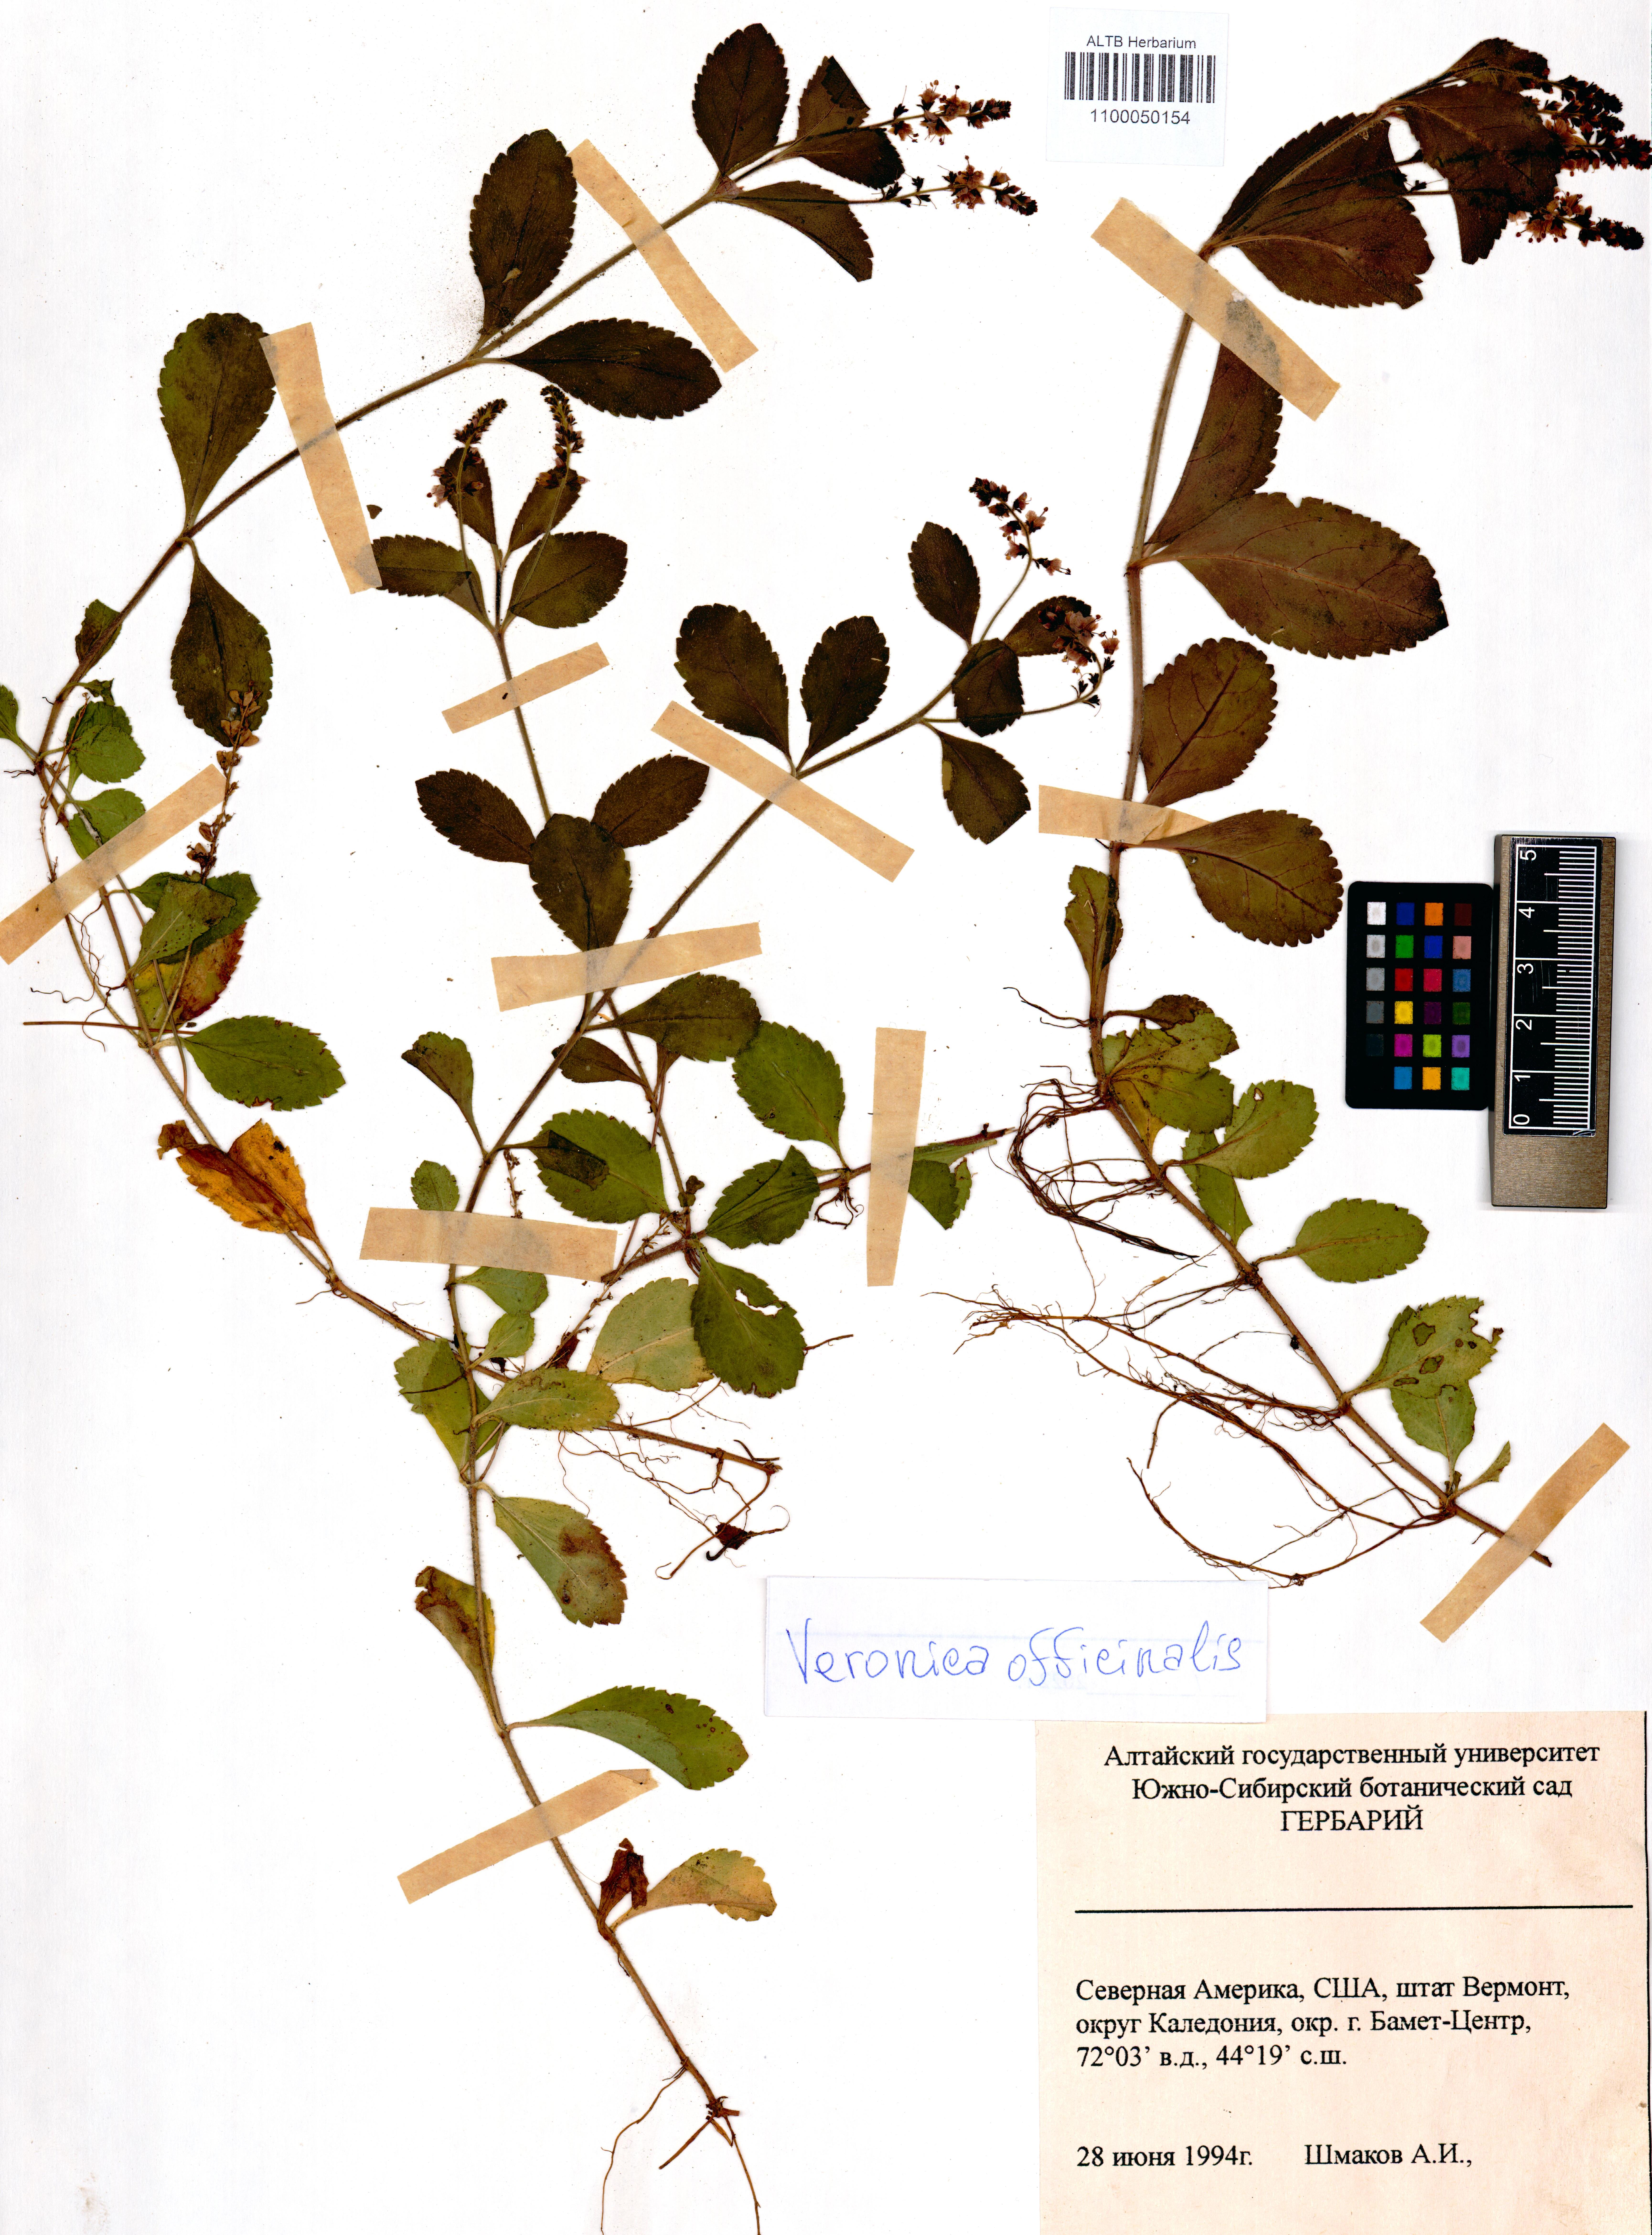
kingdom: Plantae
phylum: Tracheophyta
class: Magnoliopsida
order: Lamiales
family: Plantaginaceae
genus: Veronica
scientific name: Veronica officinalis
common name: Common speedwell
